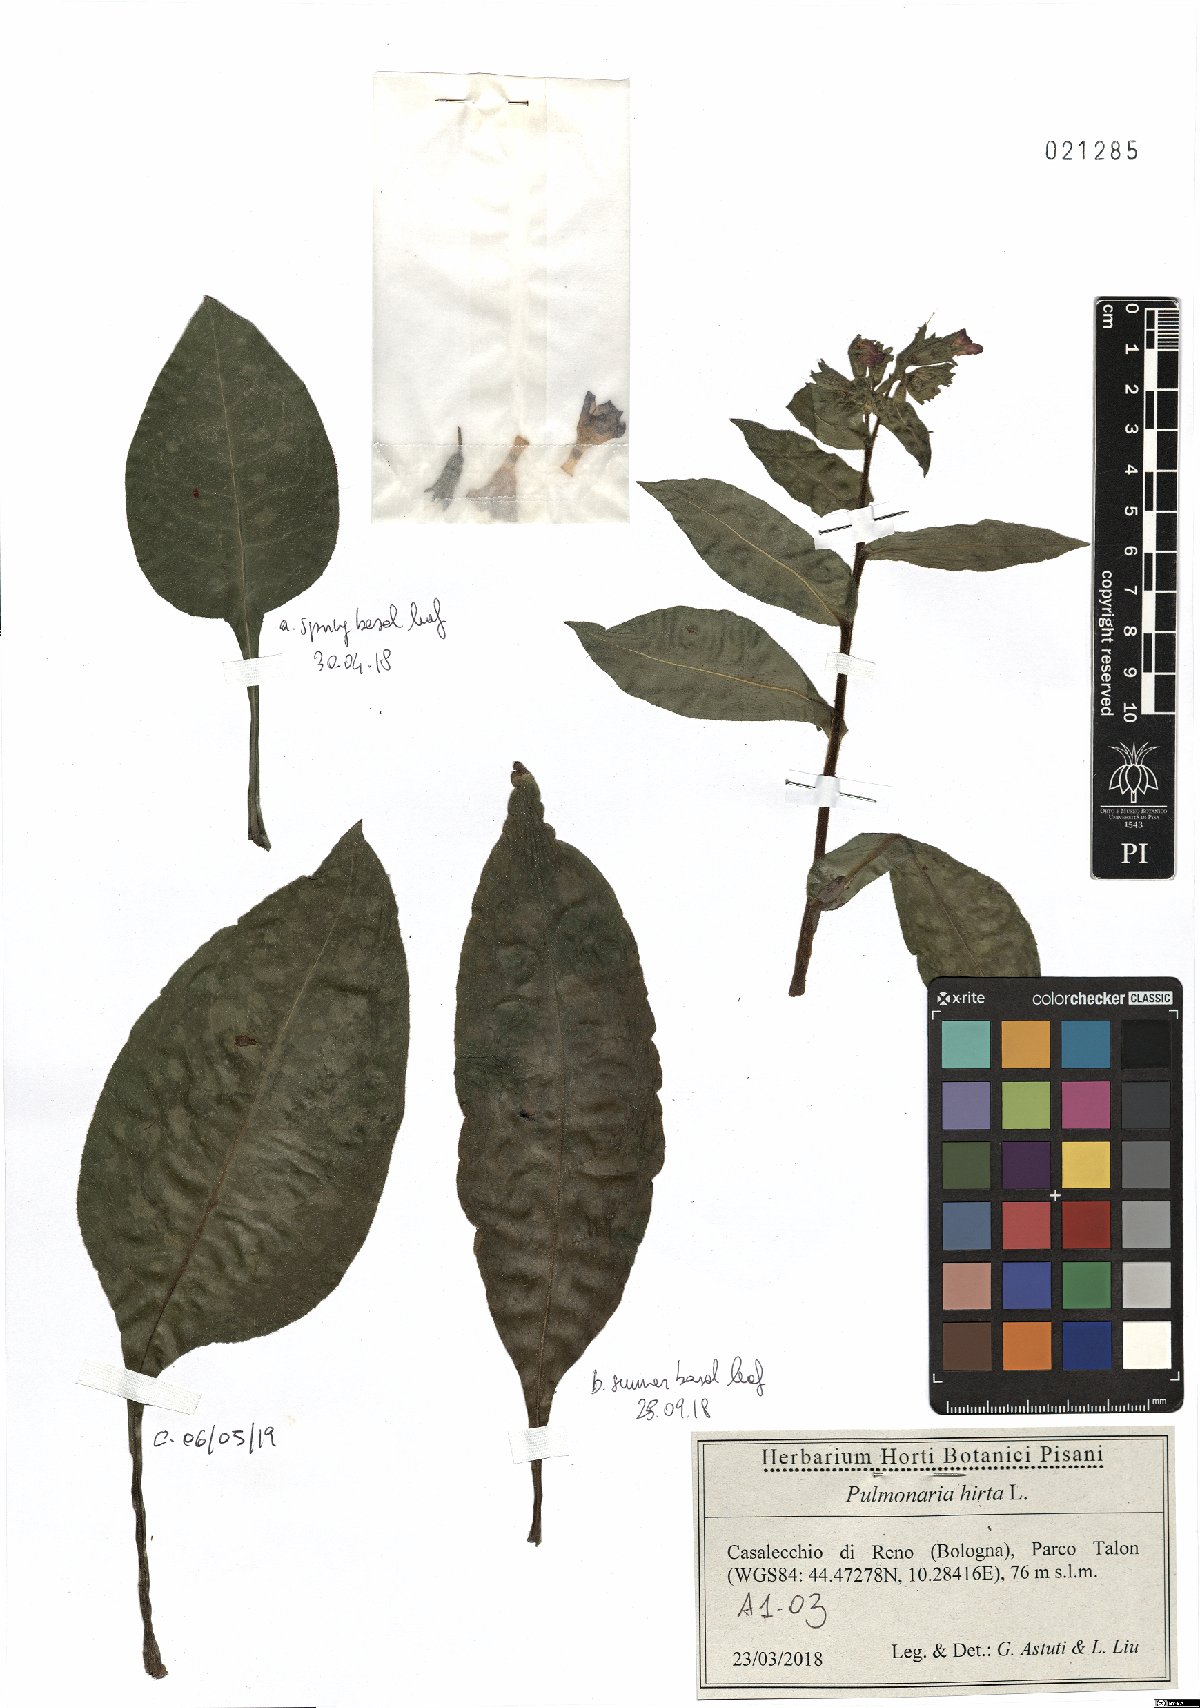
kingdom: Plantae
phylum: Tracheophyta
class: Magnoliopsida
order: Boraginales
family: Boraginaceae
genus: Pulmonaria
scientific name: Pulmonaria hirta
